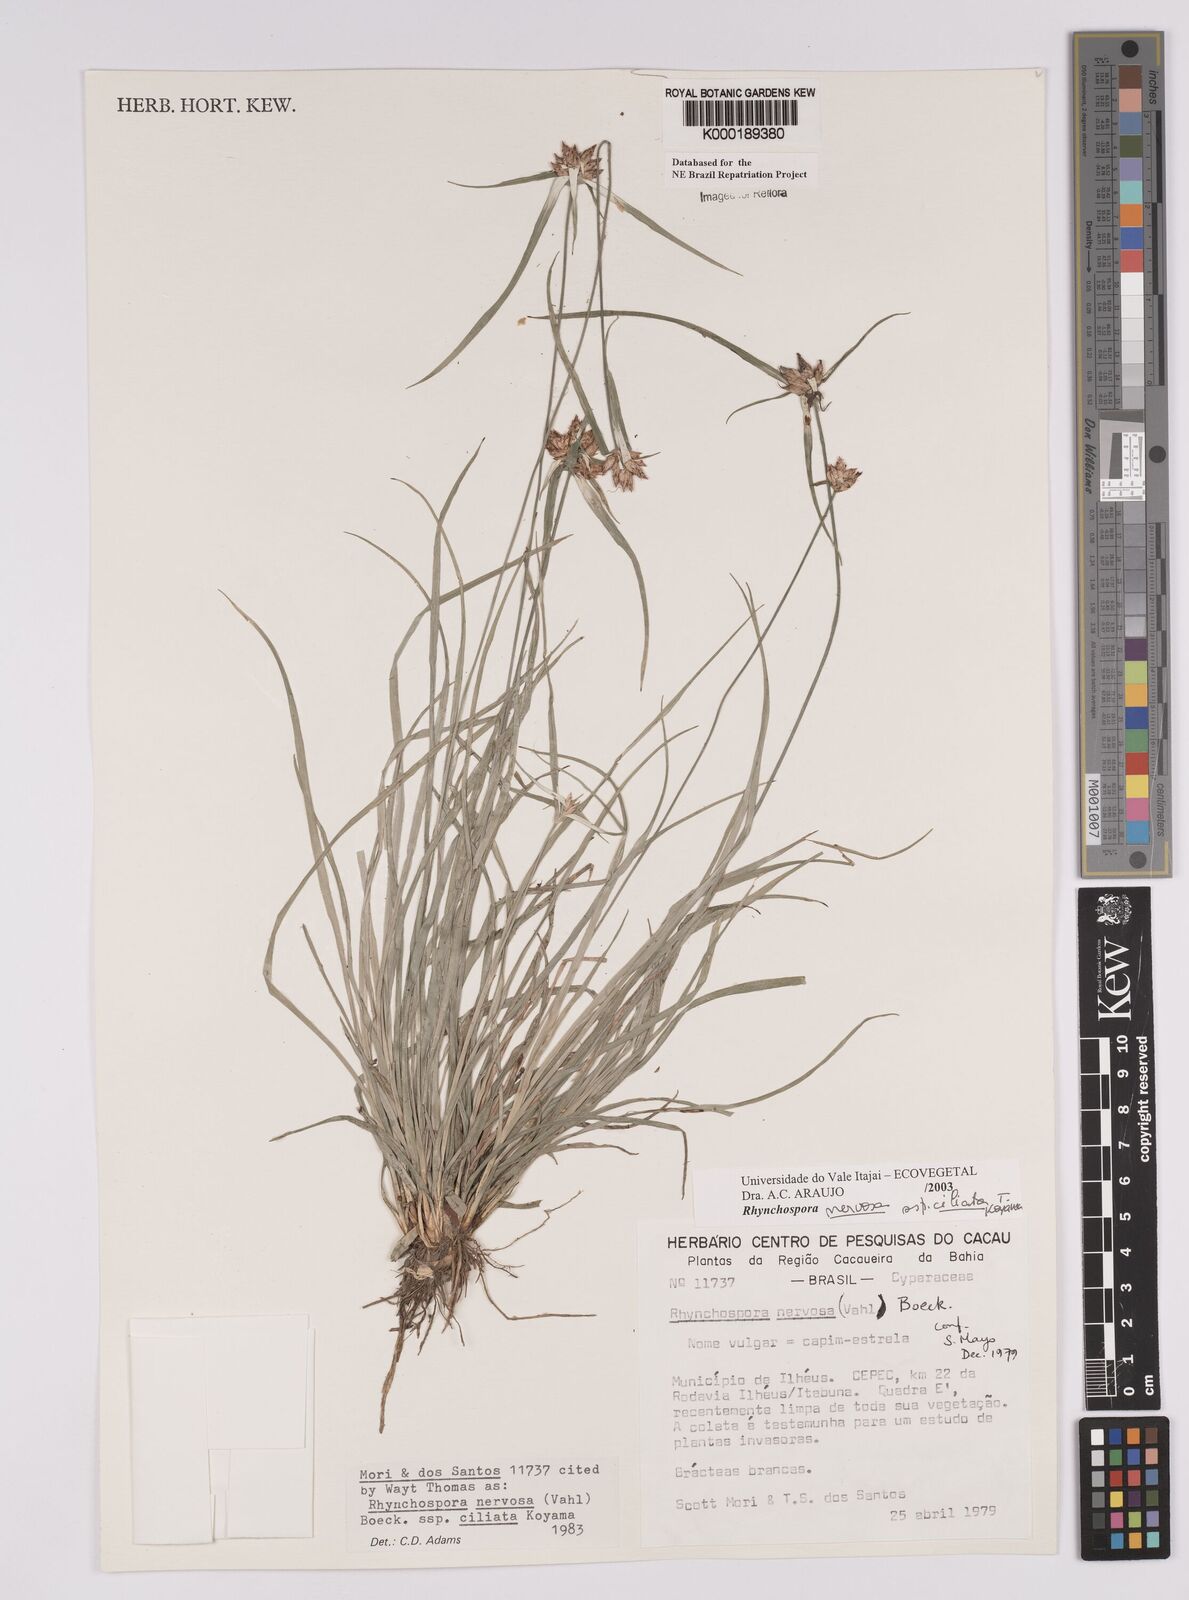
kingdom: Plantae
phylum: Tracheophyta
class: Liliopsida
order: Poales
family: Cyperaceae
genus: Rhynchospora
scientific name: Rhynchospora pura
